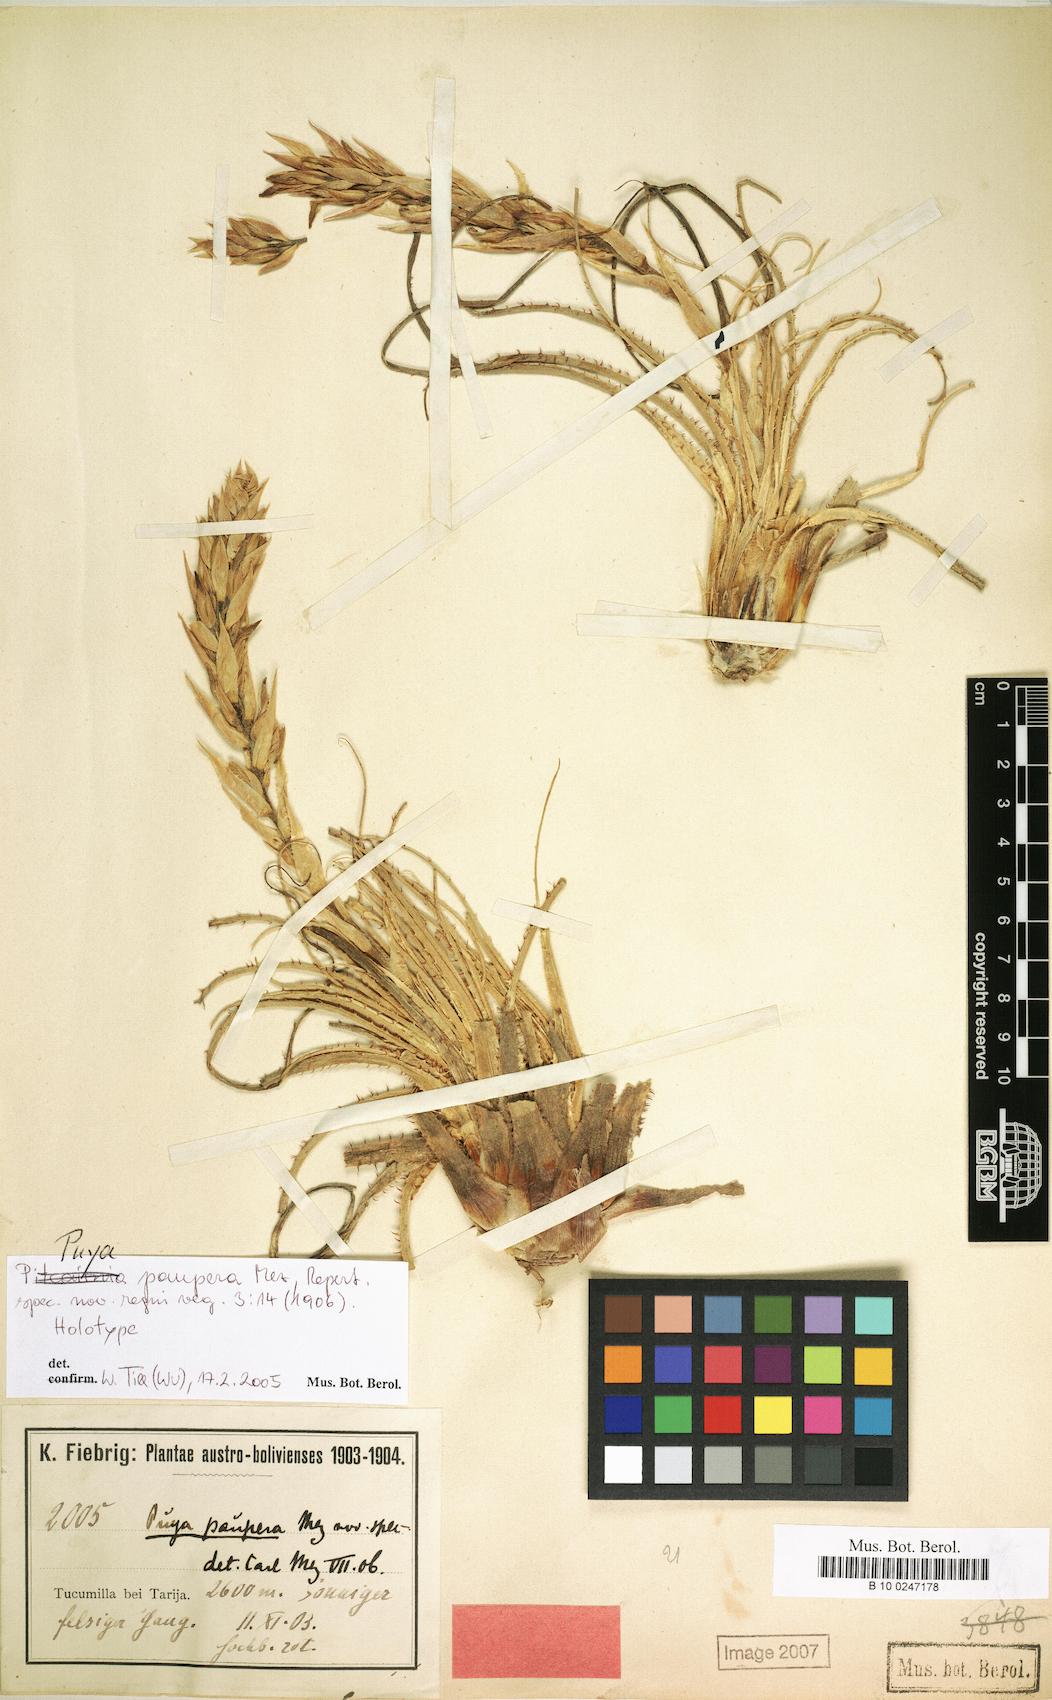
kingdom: Plantae
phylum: Tracheophyta
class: Liliopsida
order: Poales
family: Bromeliaceae
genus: Puya
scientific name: Puya paupera
